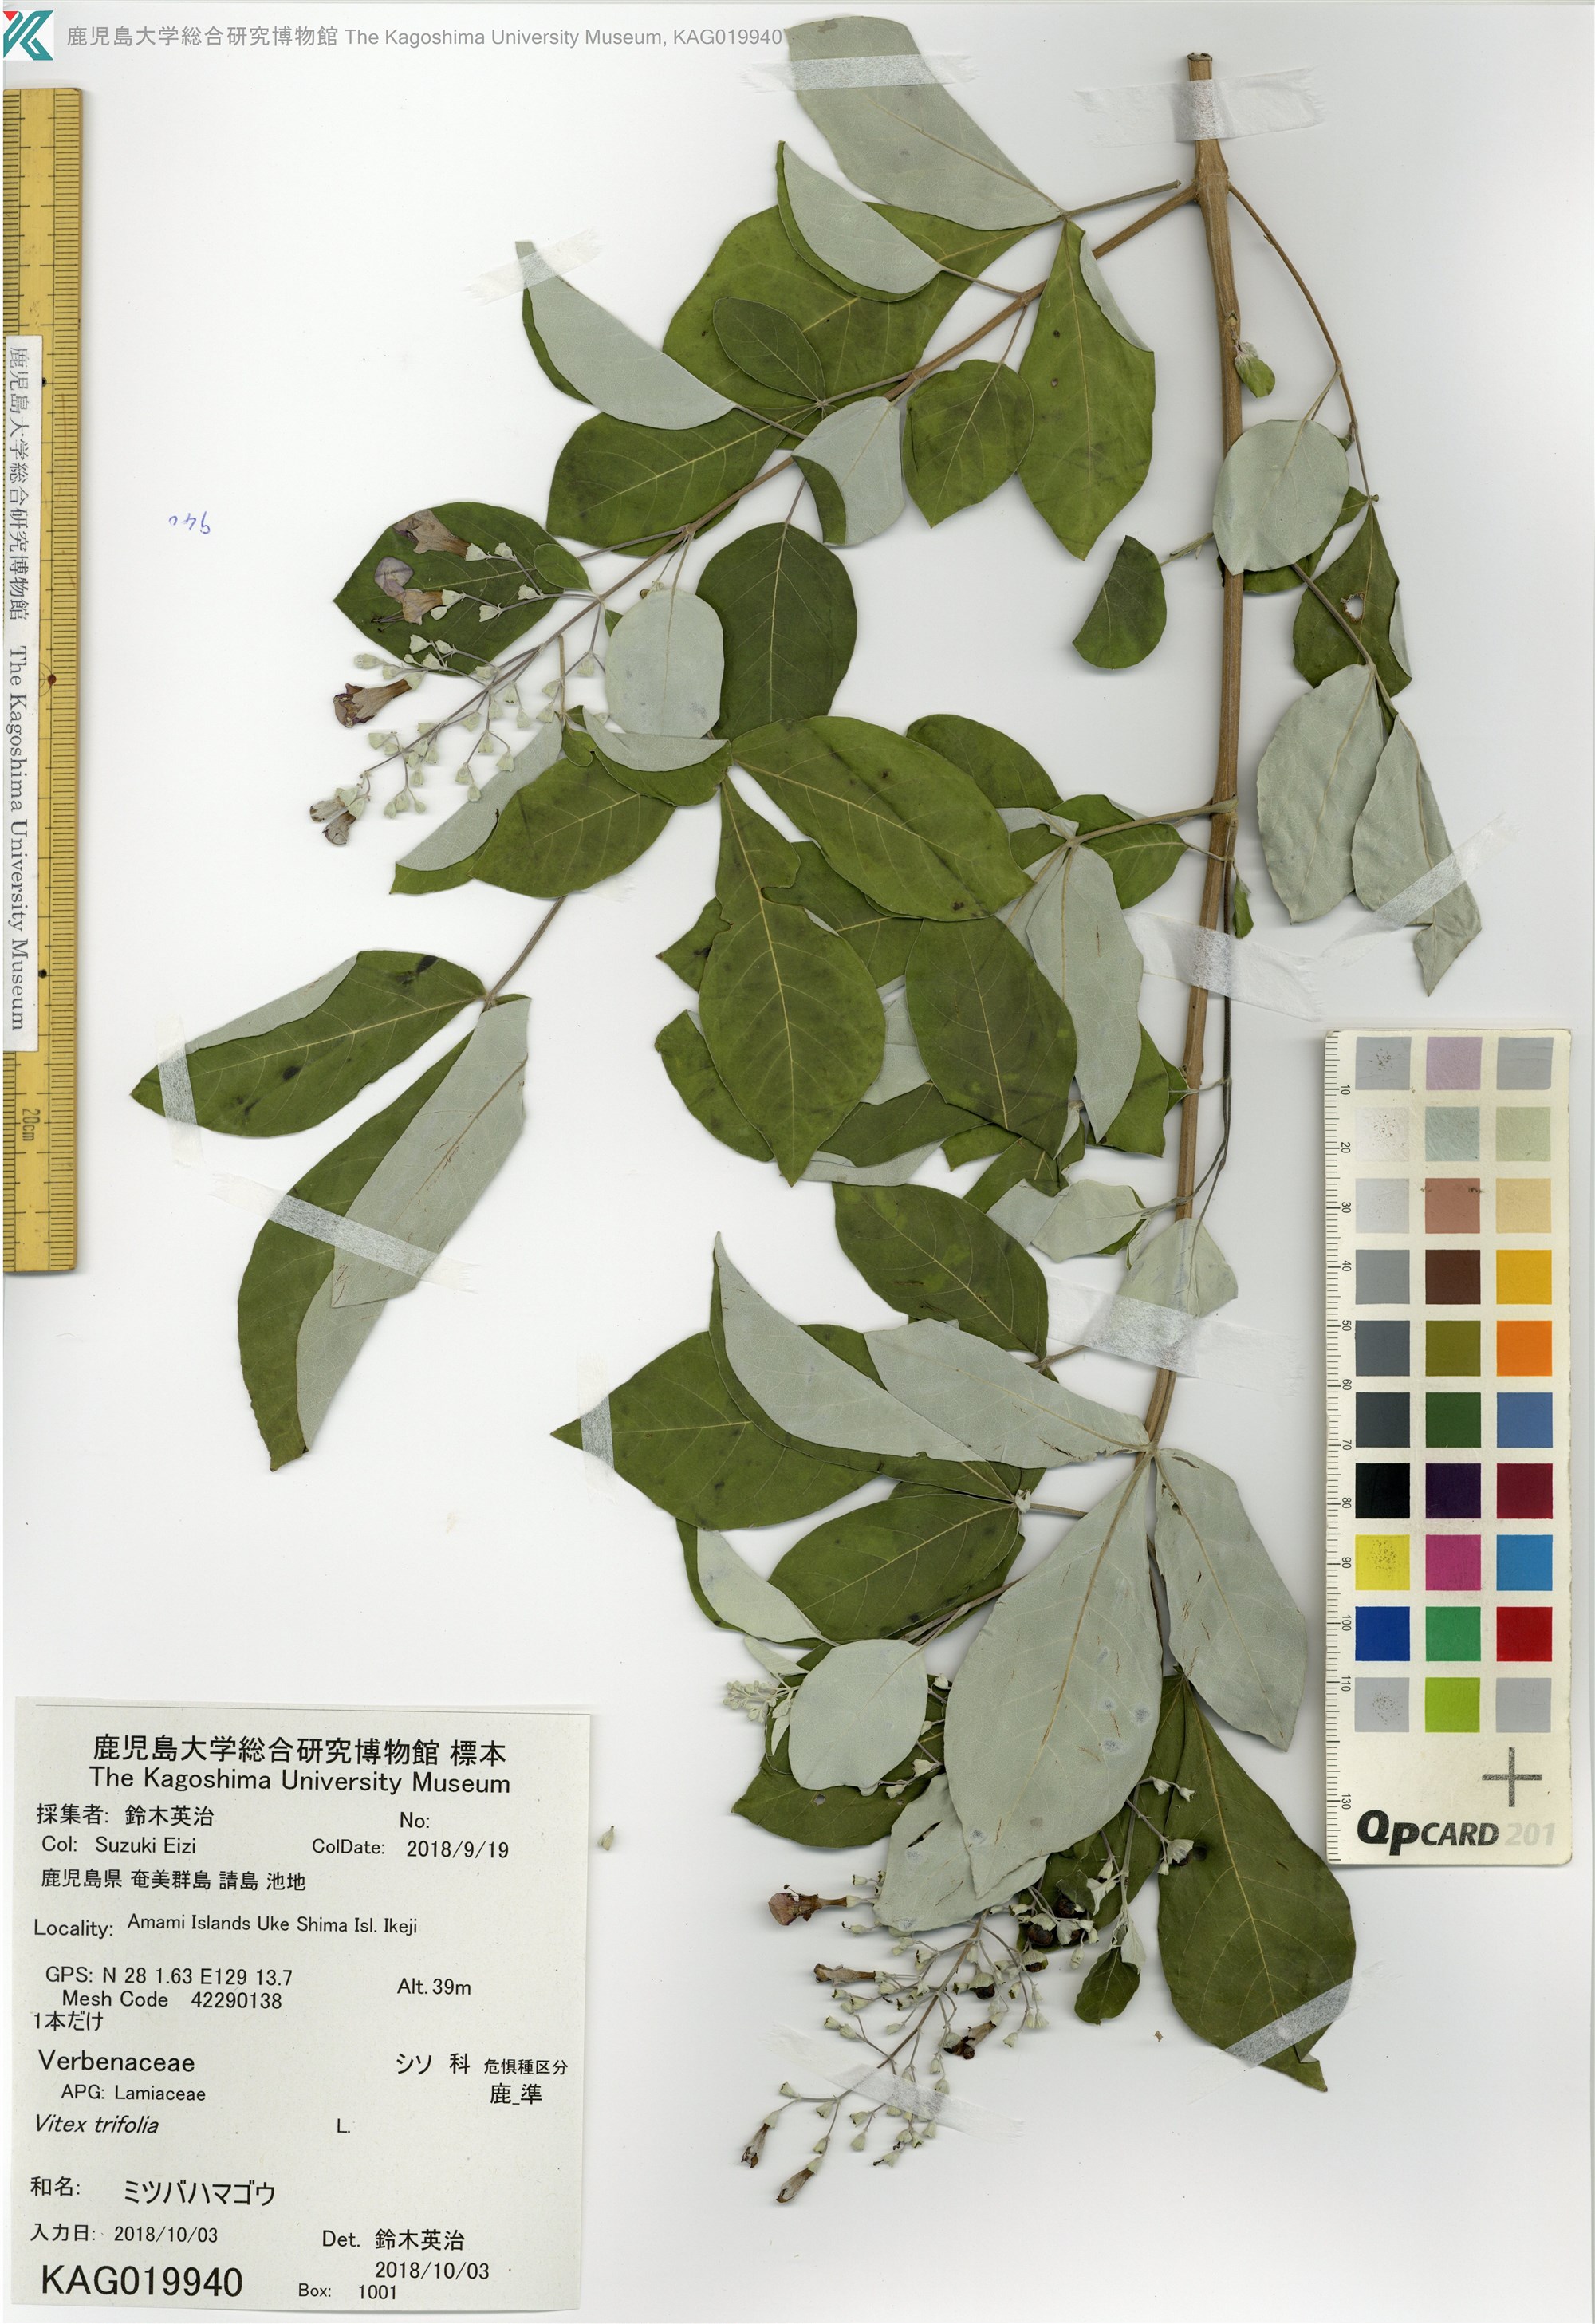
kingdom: Plantae
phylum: Tracheophyta
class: Magnoliopsida
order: Lamiales
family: Lamiaceae
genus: Vitex
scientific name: Vitex trifolia
